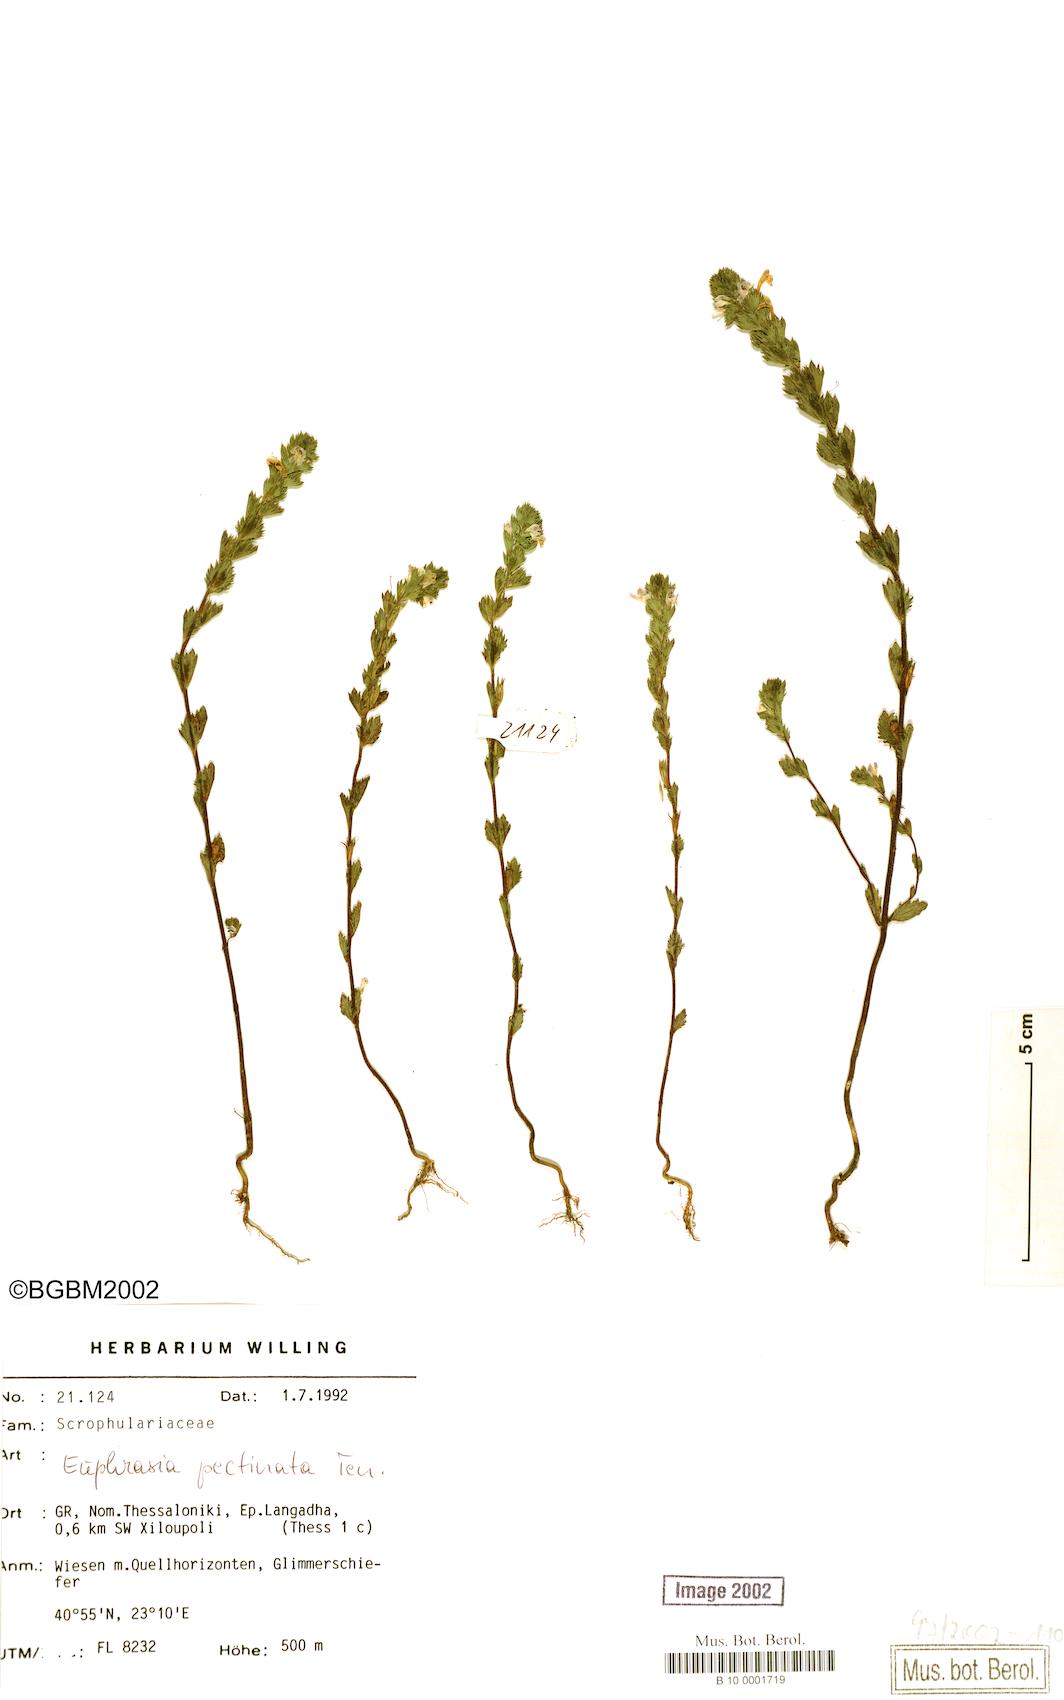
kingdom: Plantae
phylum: Tracheophyta
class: Magnoliopsida
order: Lamiales
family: Orobanchaceae
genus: Euphrasia
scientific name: Euphrasia pectinata
